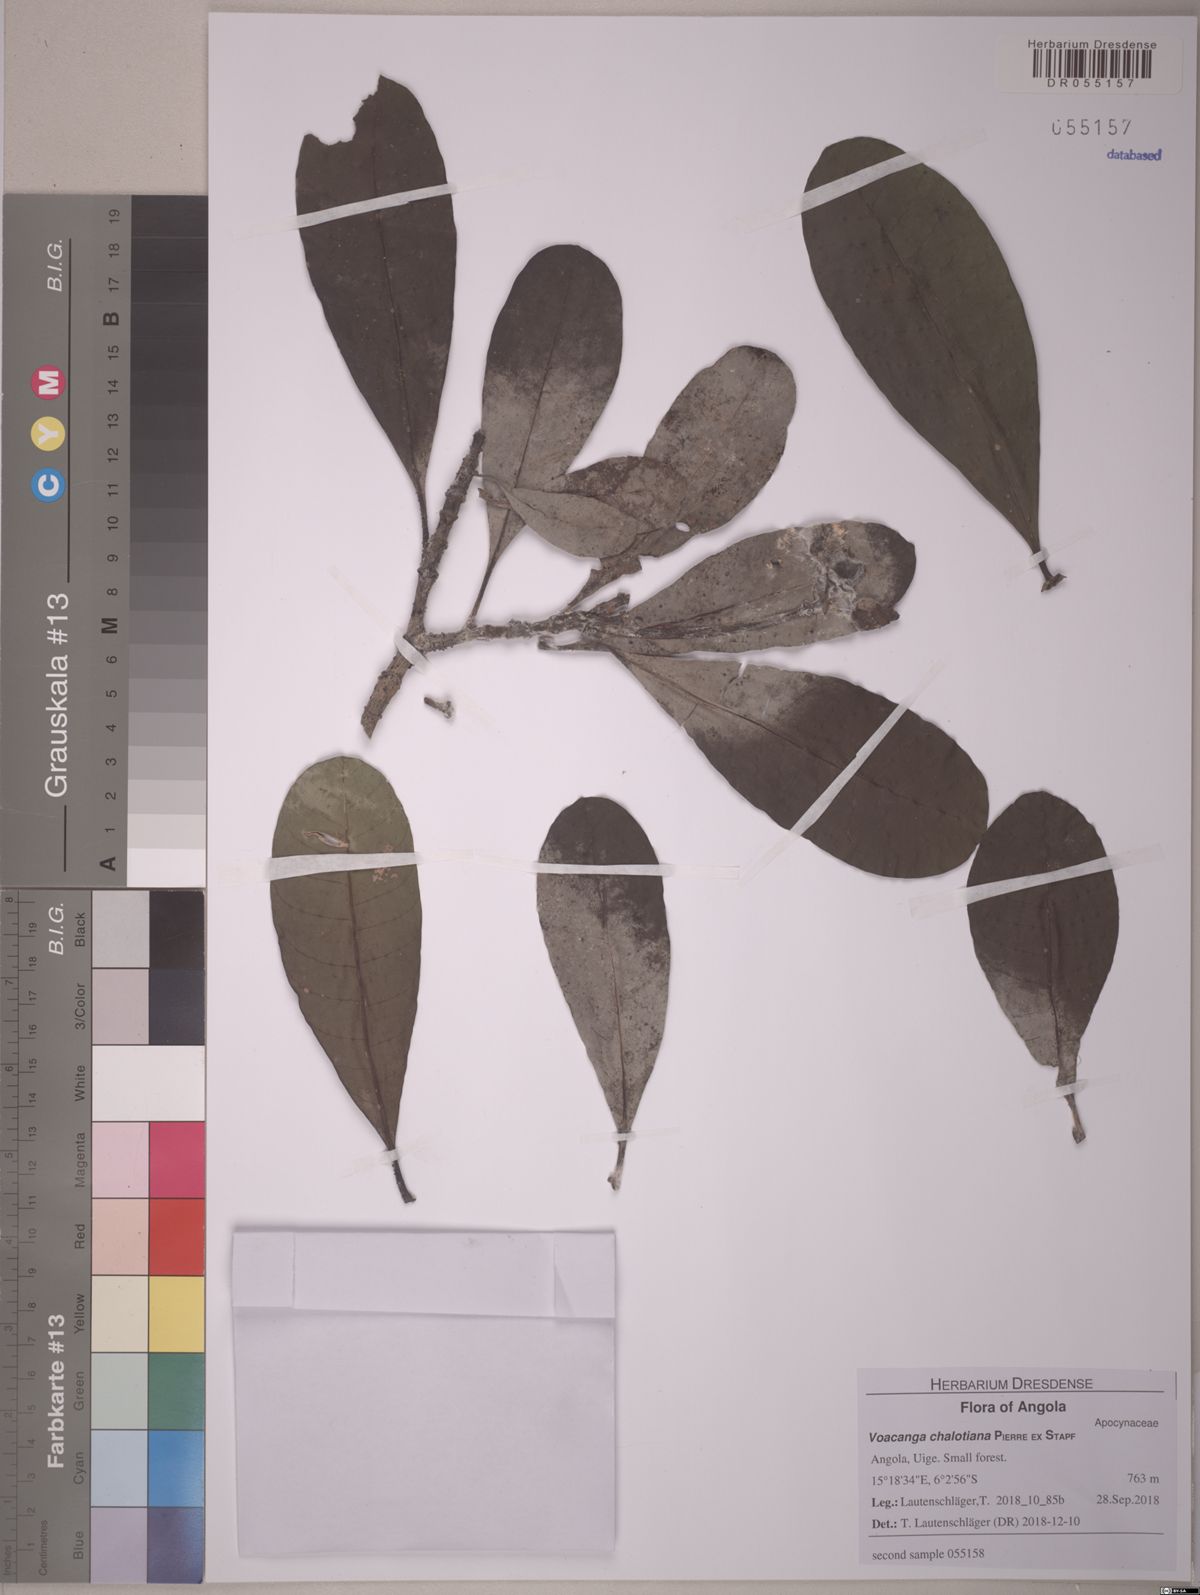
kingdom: Plantae
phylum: Tracheophyta
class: Magnoliopsida
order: Gentianales
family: Apocynaceae
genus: Voacanga
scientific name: Voacanga thouarsii
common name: Wild frangipani
